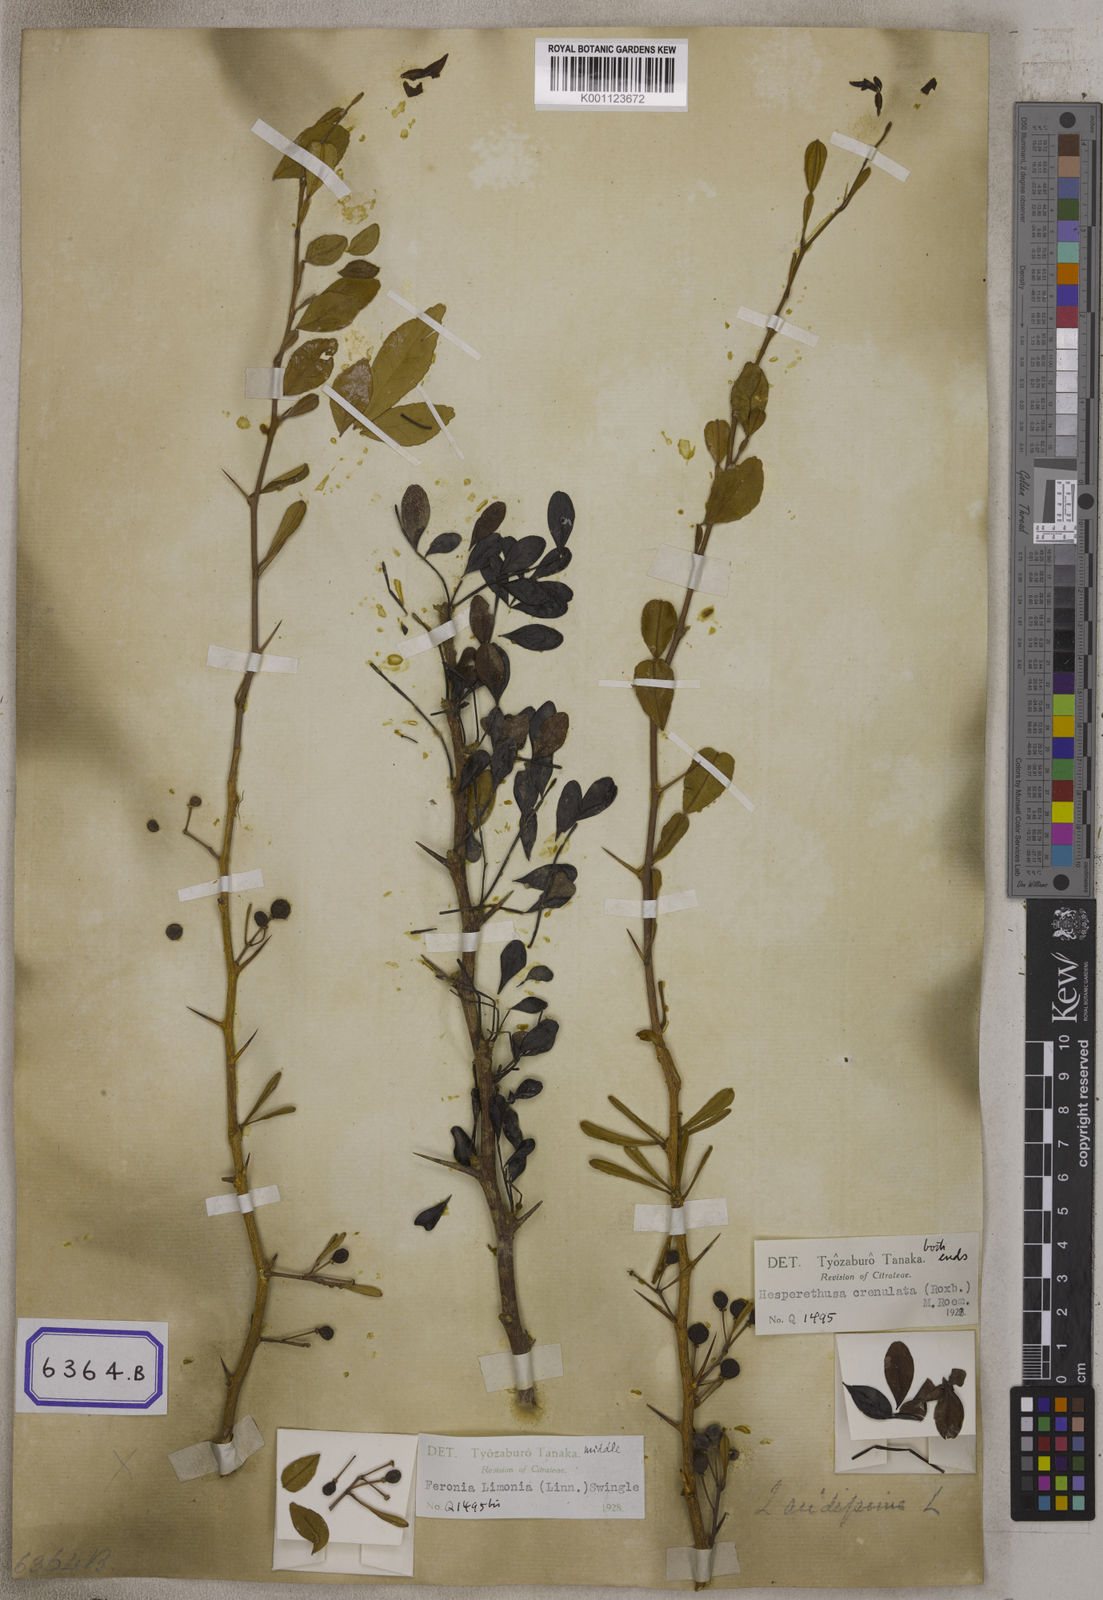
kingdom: Plantae
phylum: Tracheophyta
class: Magnoliopsida
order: Sapindales
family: Rutaceae
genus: Naringi
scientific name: Naringi crenulata
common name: Hesperethusa
